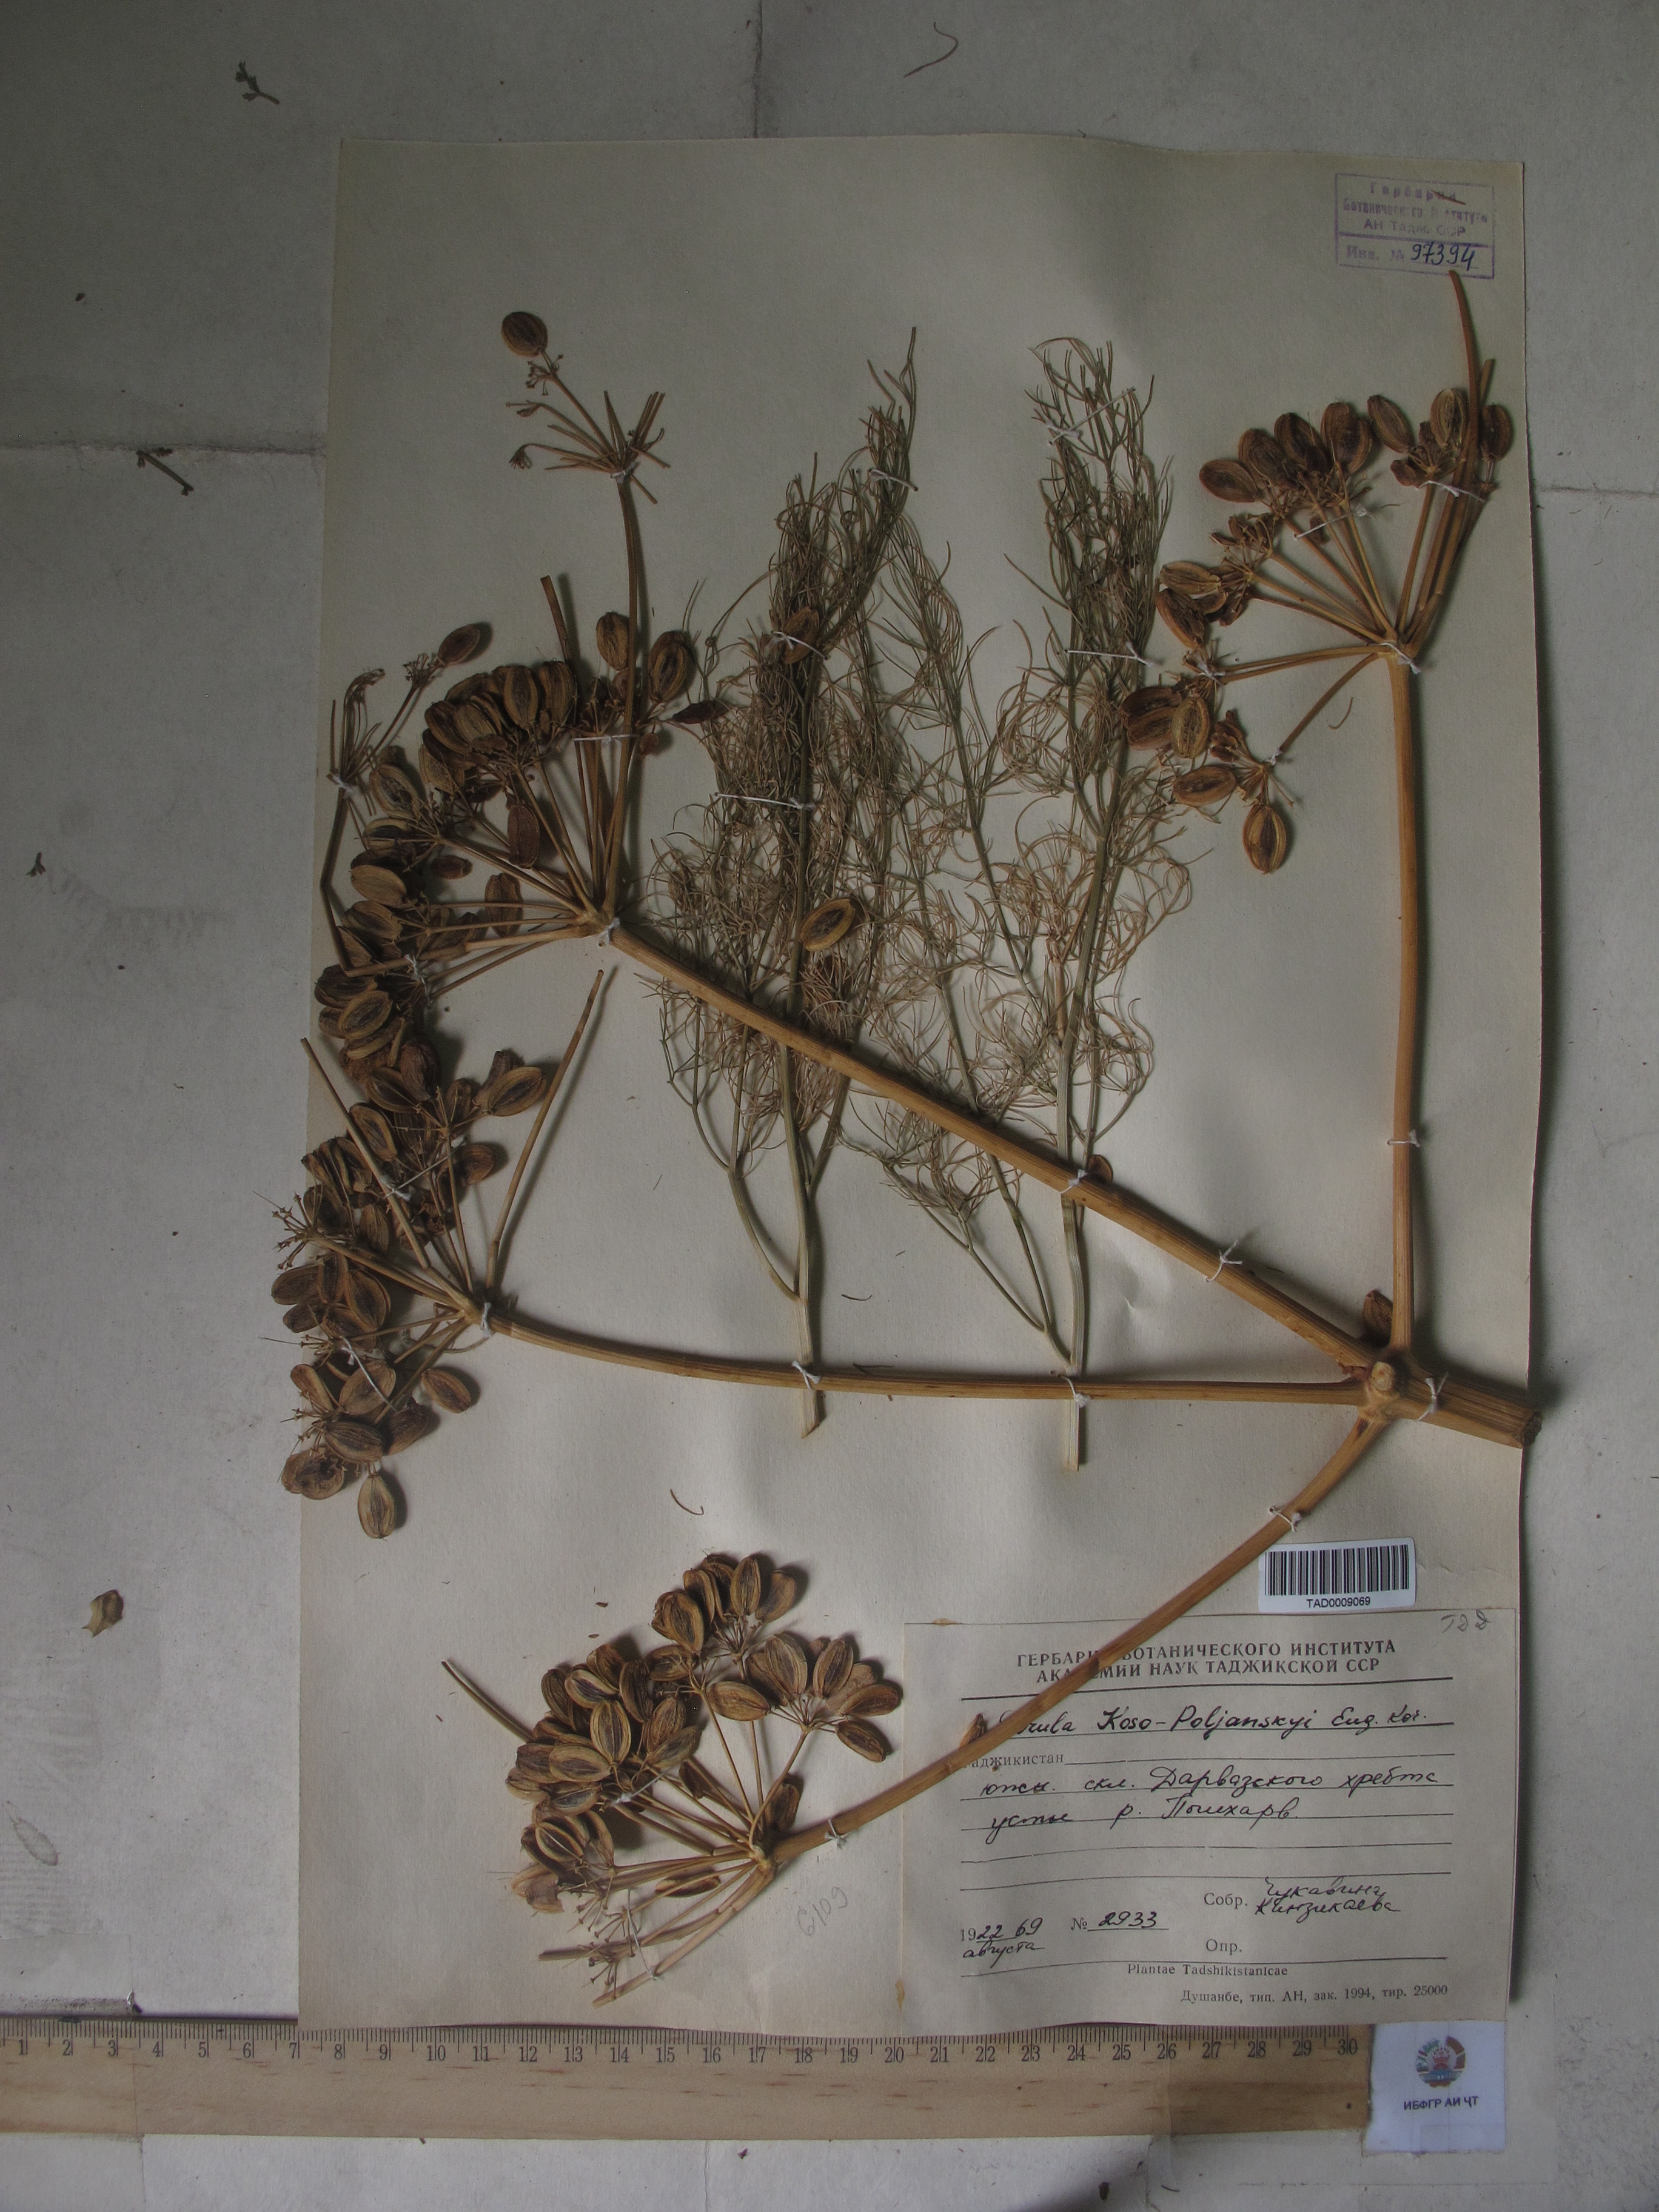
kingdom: Plantae
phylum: Tracheophyta
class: Magnoliopsida
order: Apiales
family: Apiaceae
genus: Ferula
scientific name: Ferula
